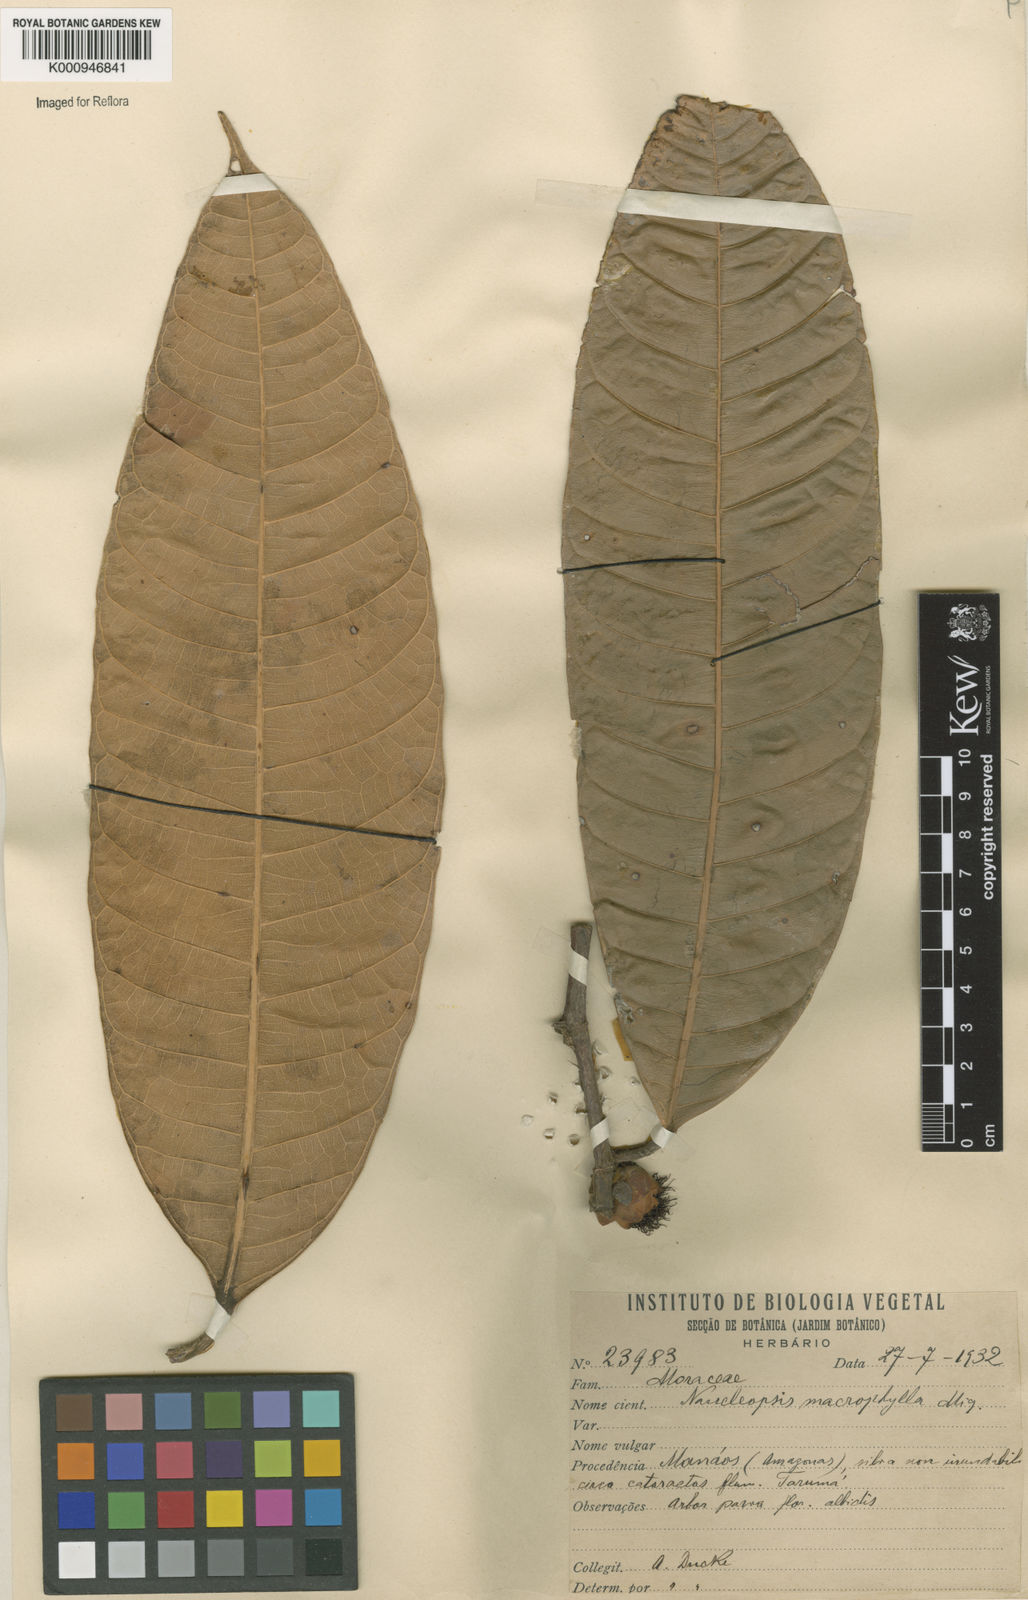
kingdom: Plantae
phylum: Tracheophyta
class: Magnoliopsida
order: Rosales
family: Moraceae
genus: Naucleopsis
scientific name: Naucleopsis macrophylla
